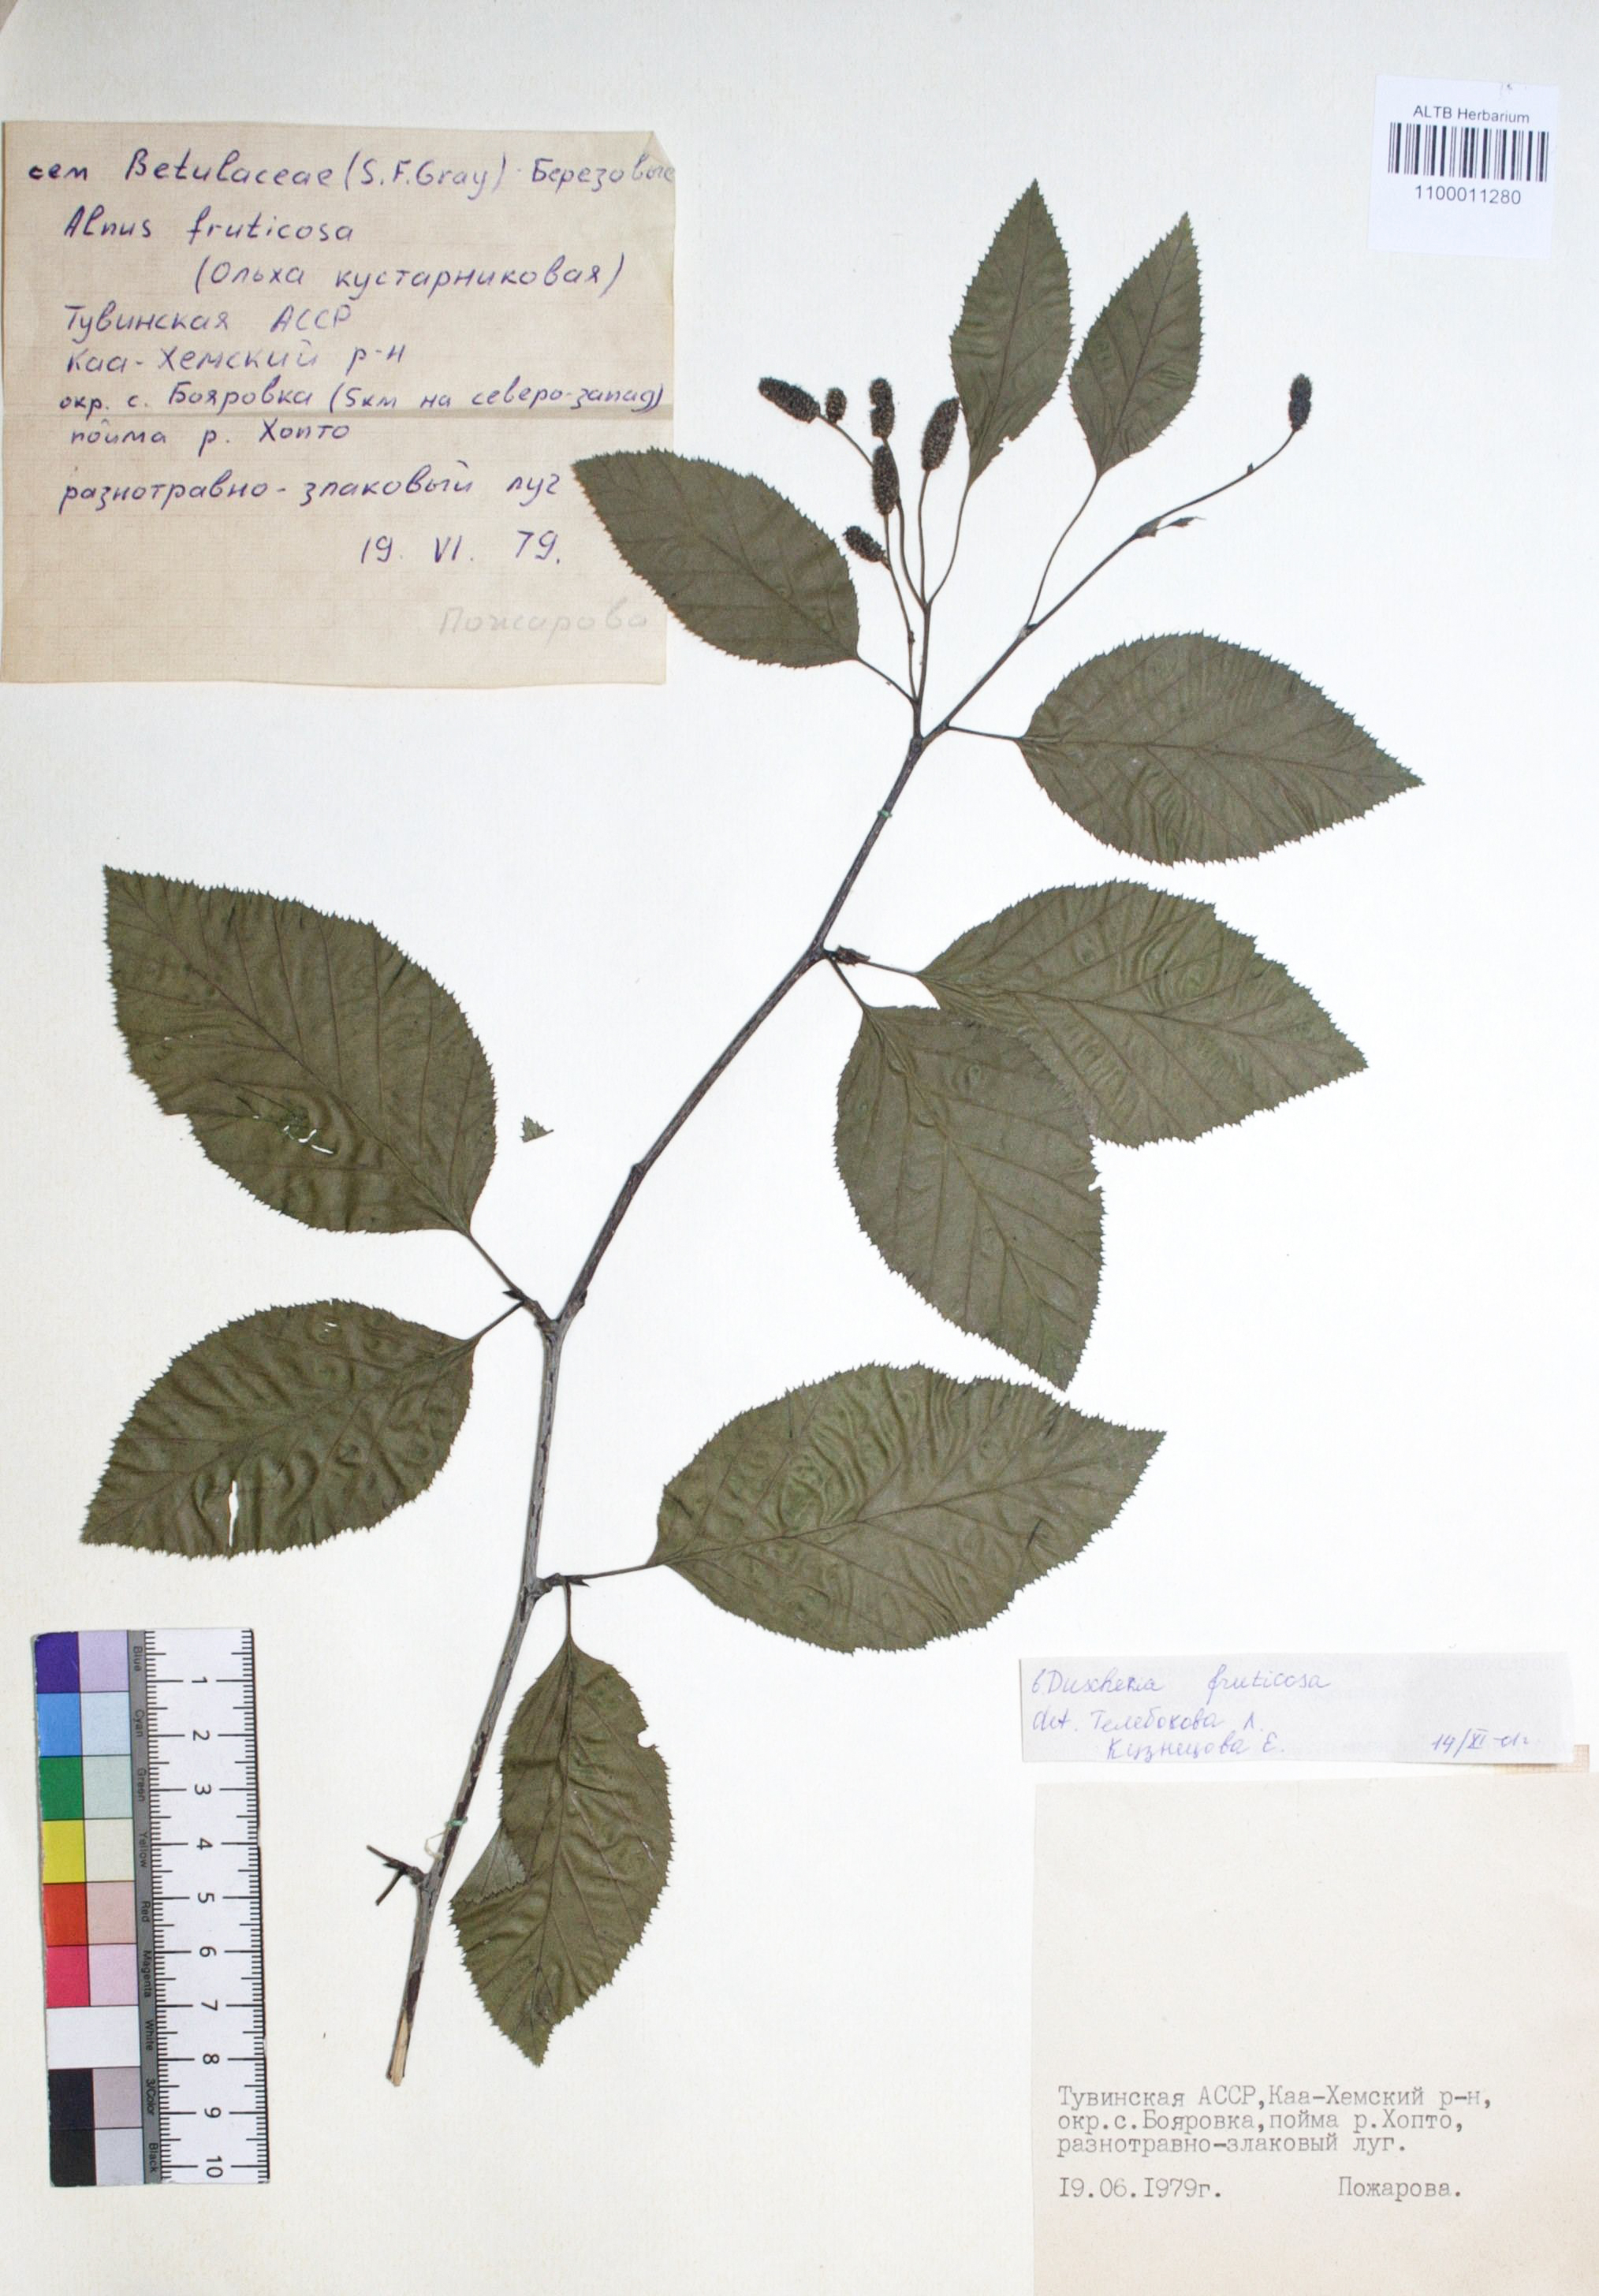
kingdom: Plantae
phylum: Tracheophyta
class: Magnoliopsida
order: Fagales
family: Betulaceae
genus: Alnus
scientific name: Alnus alnobetula
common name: Green alder
